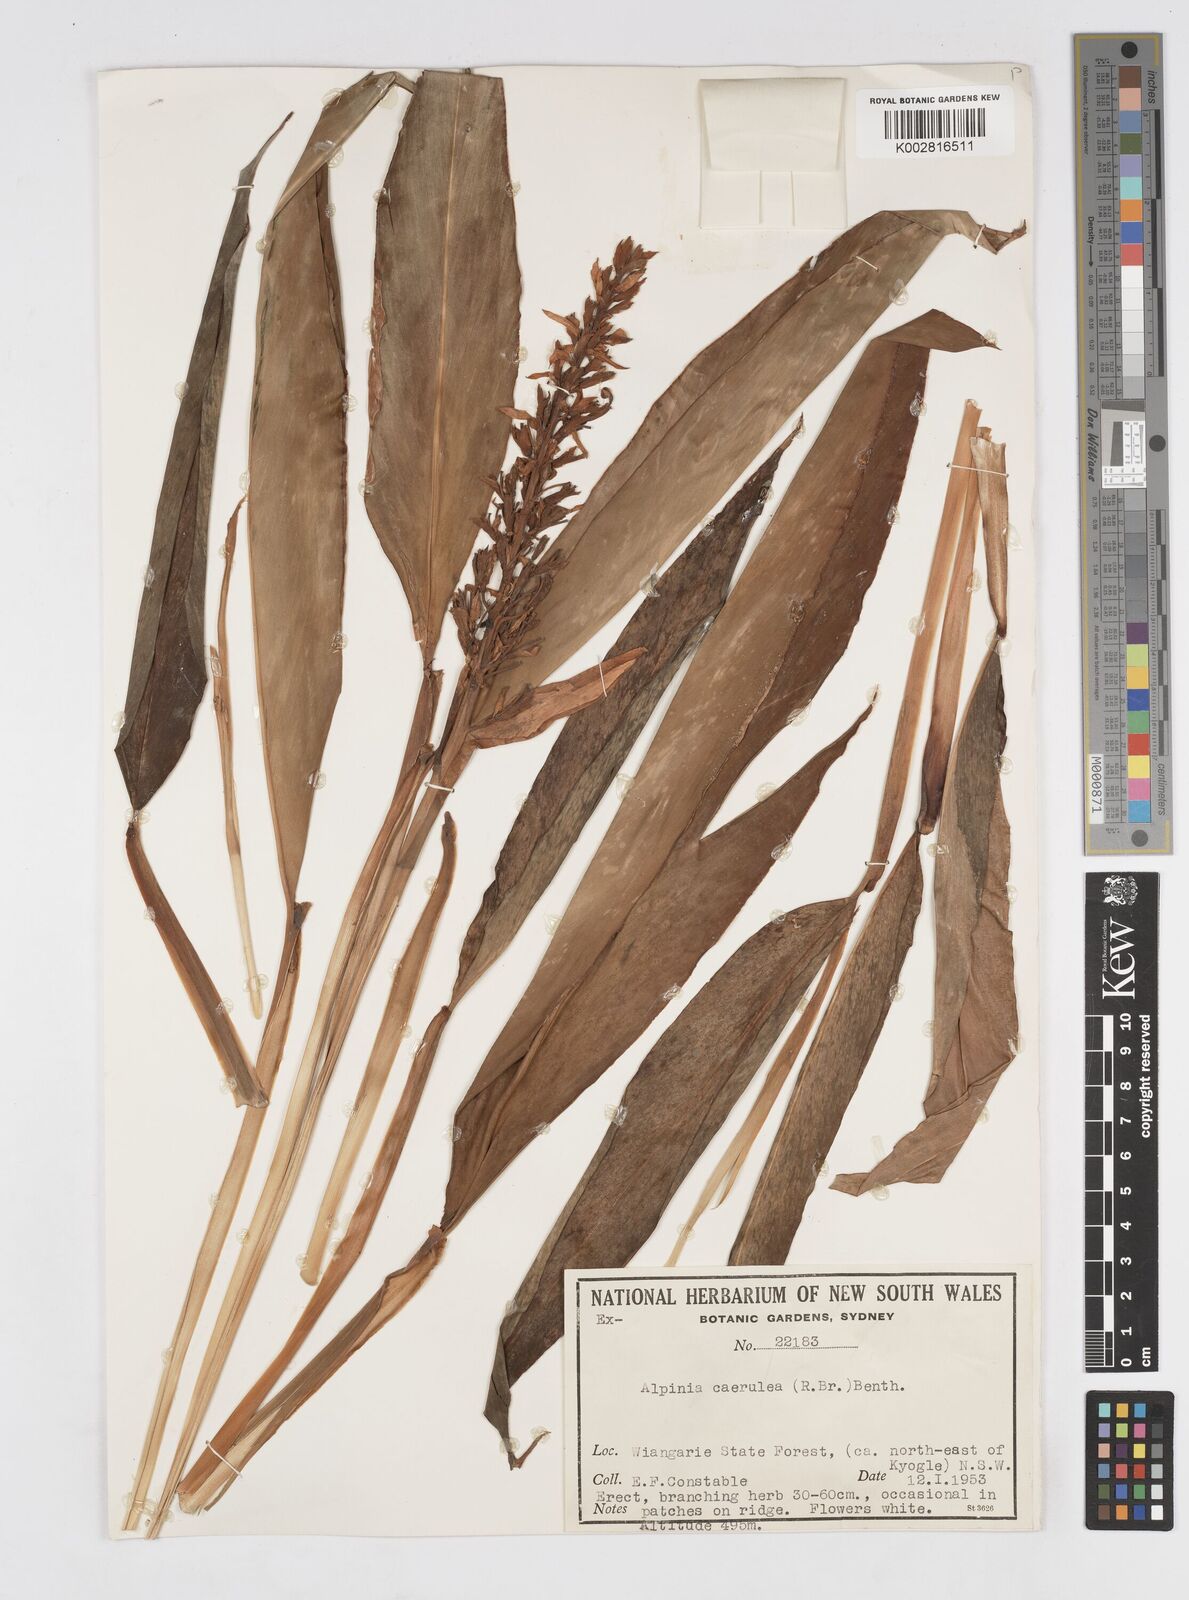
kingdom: Plantae
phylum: Tracheophyta
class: Liliopsida
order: Zingiberales
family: Zingiberaceae
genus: Alpinia
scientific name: Alpinia
